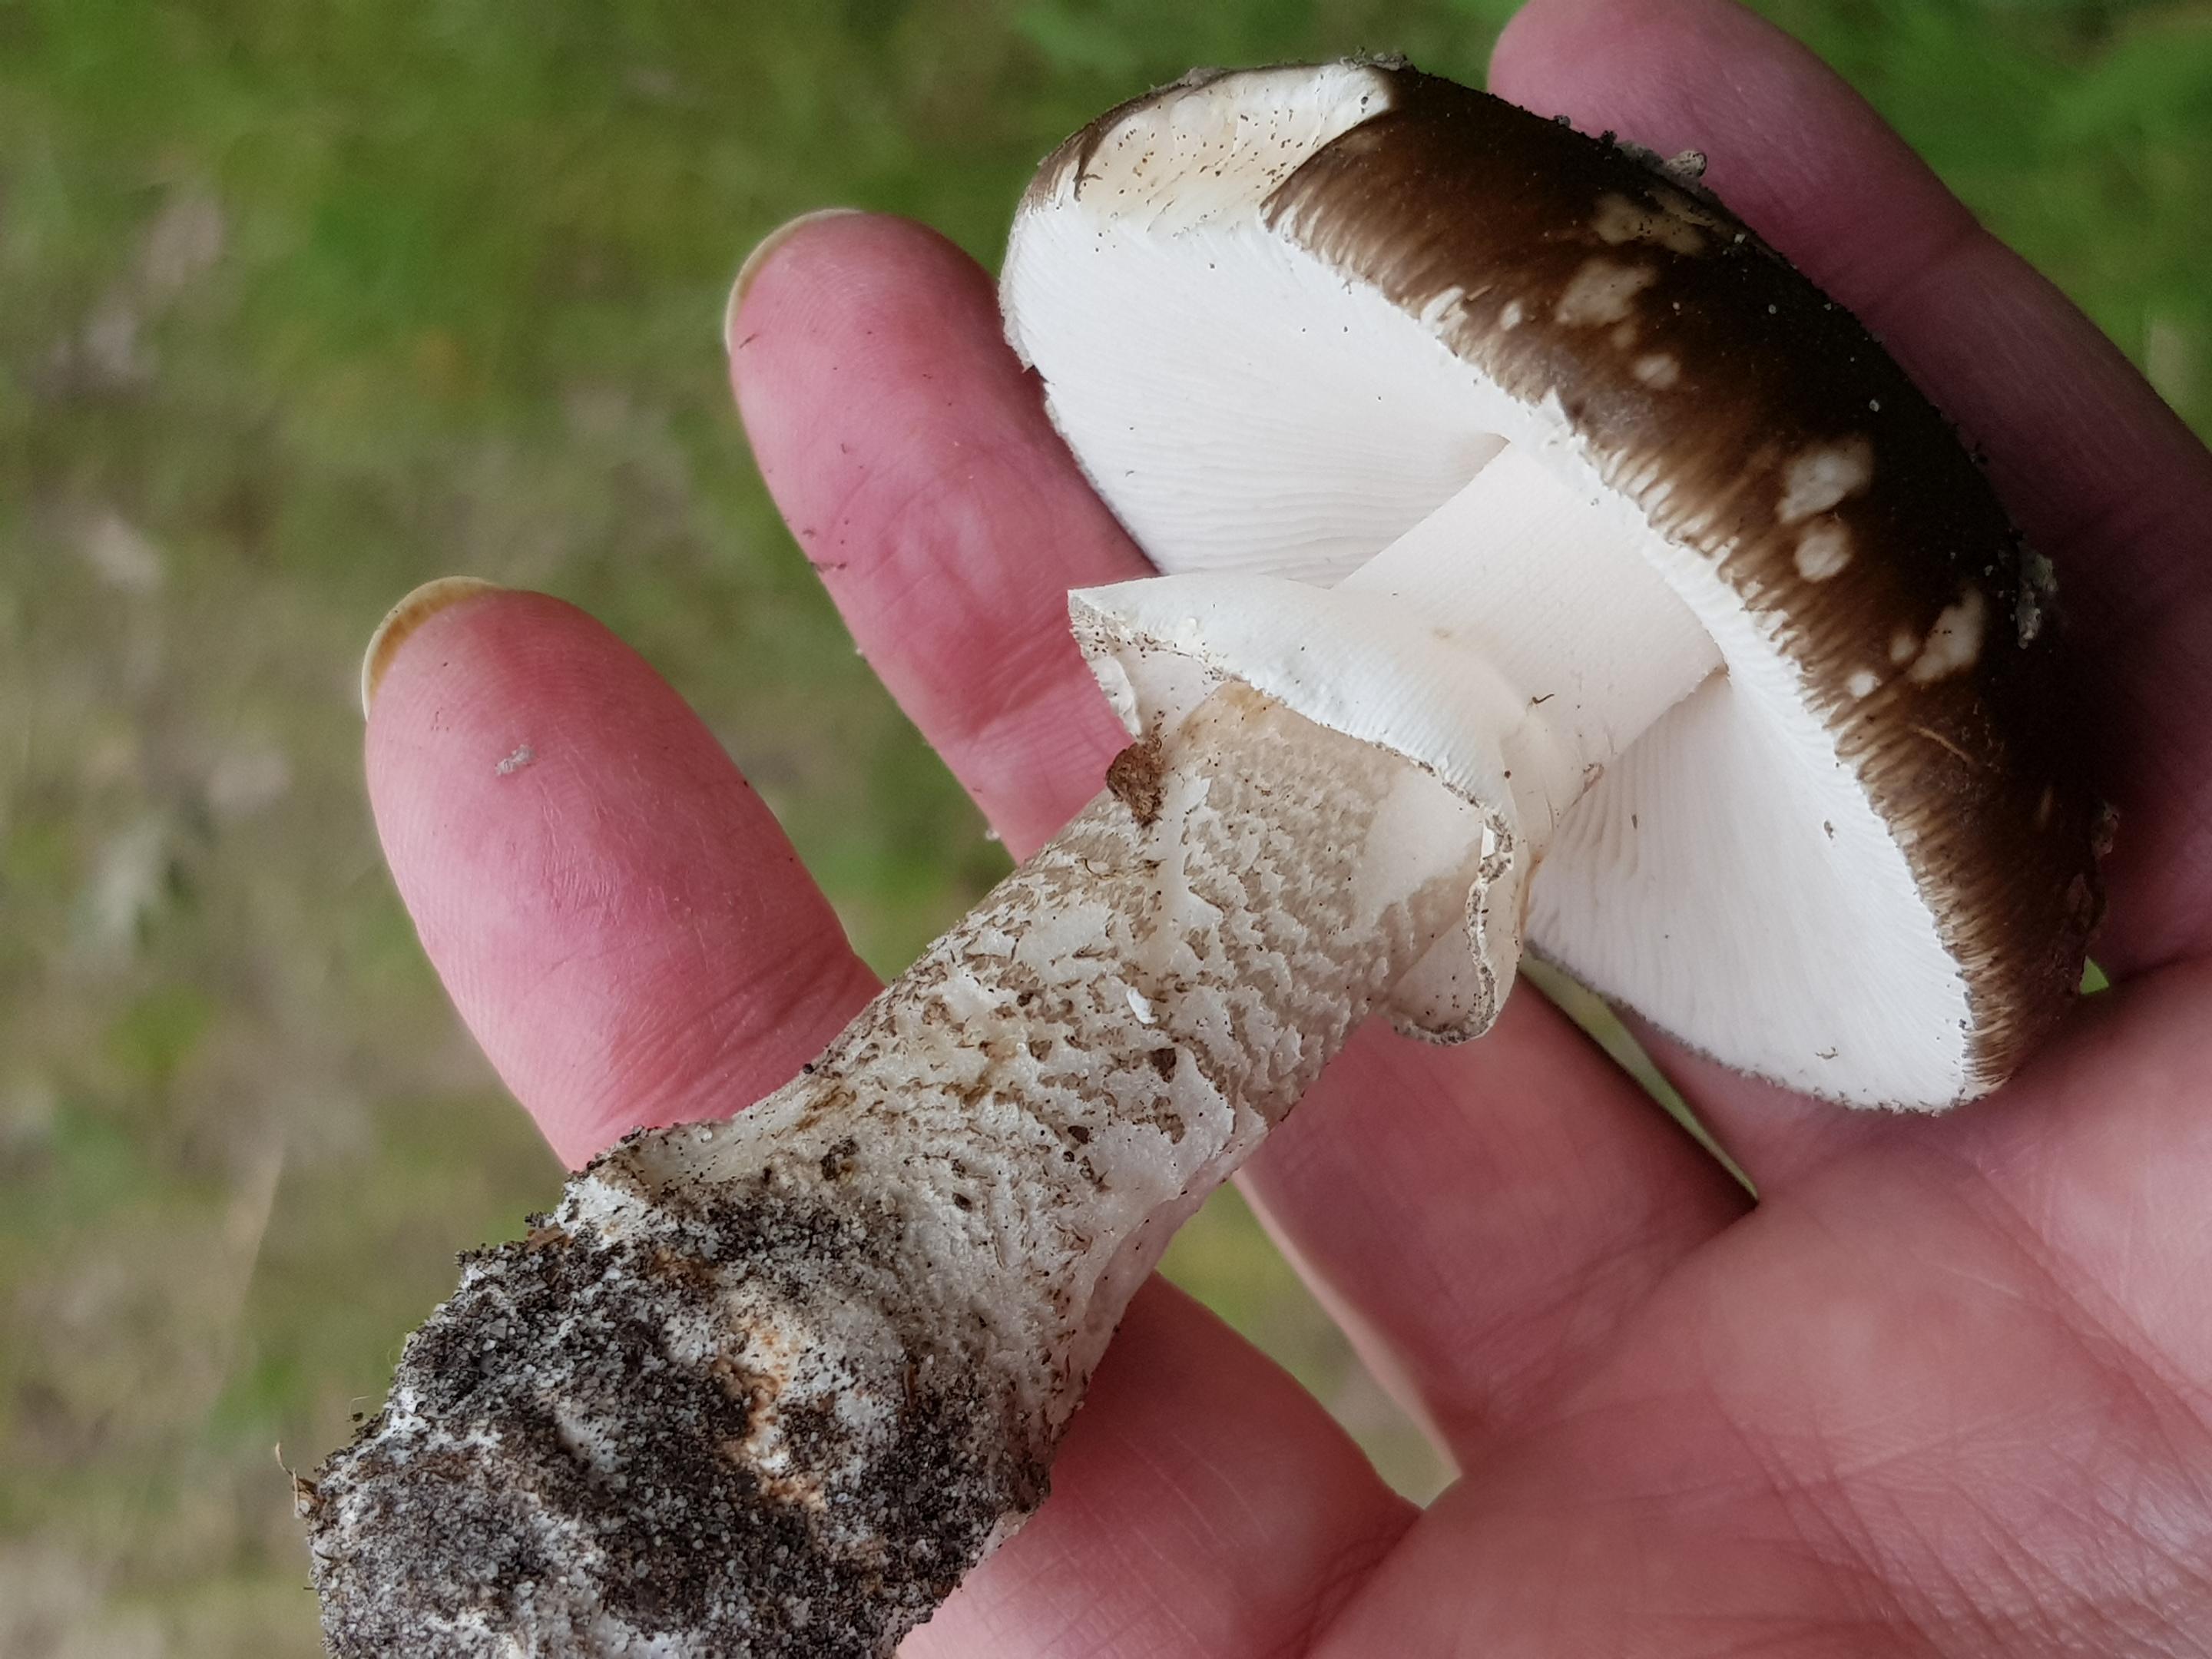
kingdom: Fungi
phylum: Basidiomycota
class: Agaricomycetes
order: Agaricales
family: Amanitaceae
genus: Amanita
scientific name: Amanita
